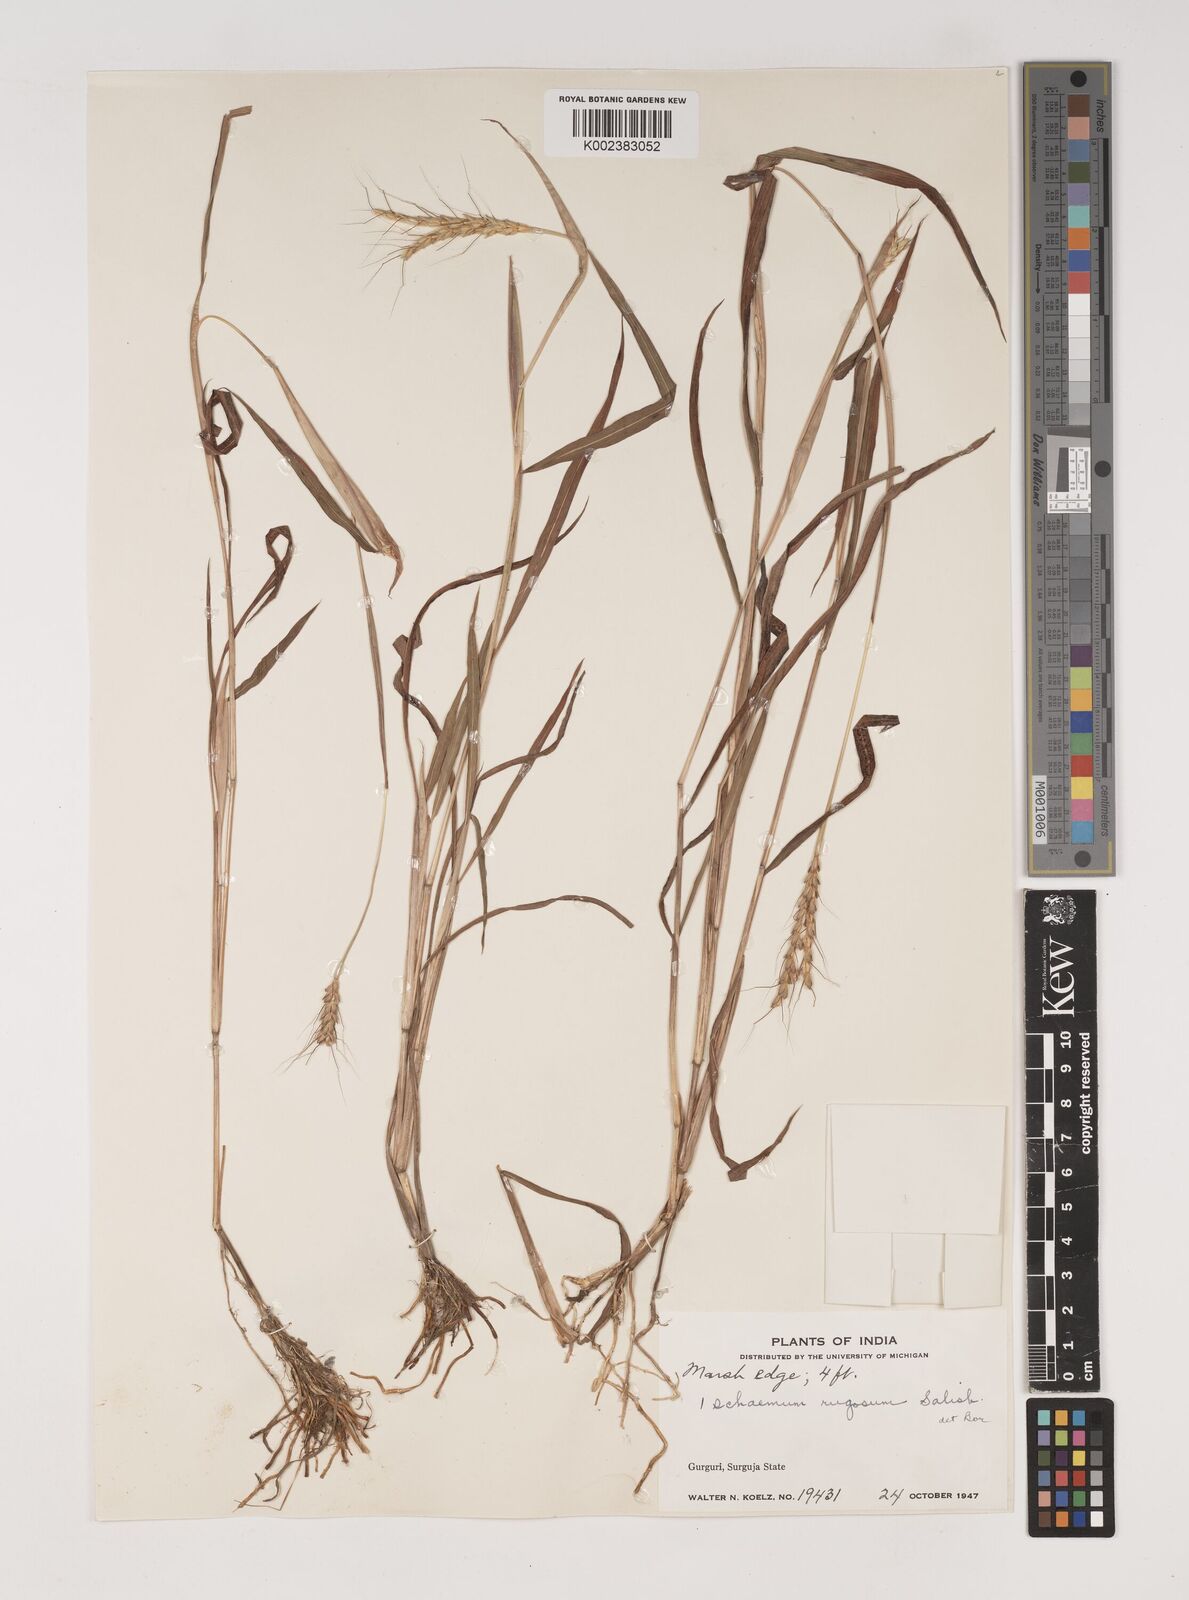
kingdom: Plantae
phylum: Tracheophyta
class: Liliopsida
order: Poales
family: Poaceae
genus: Ischaemum
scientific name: Ischaemum rugosum
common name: Saramatta grass
